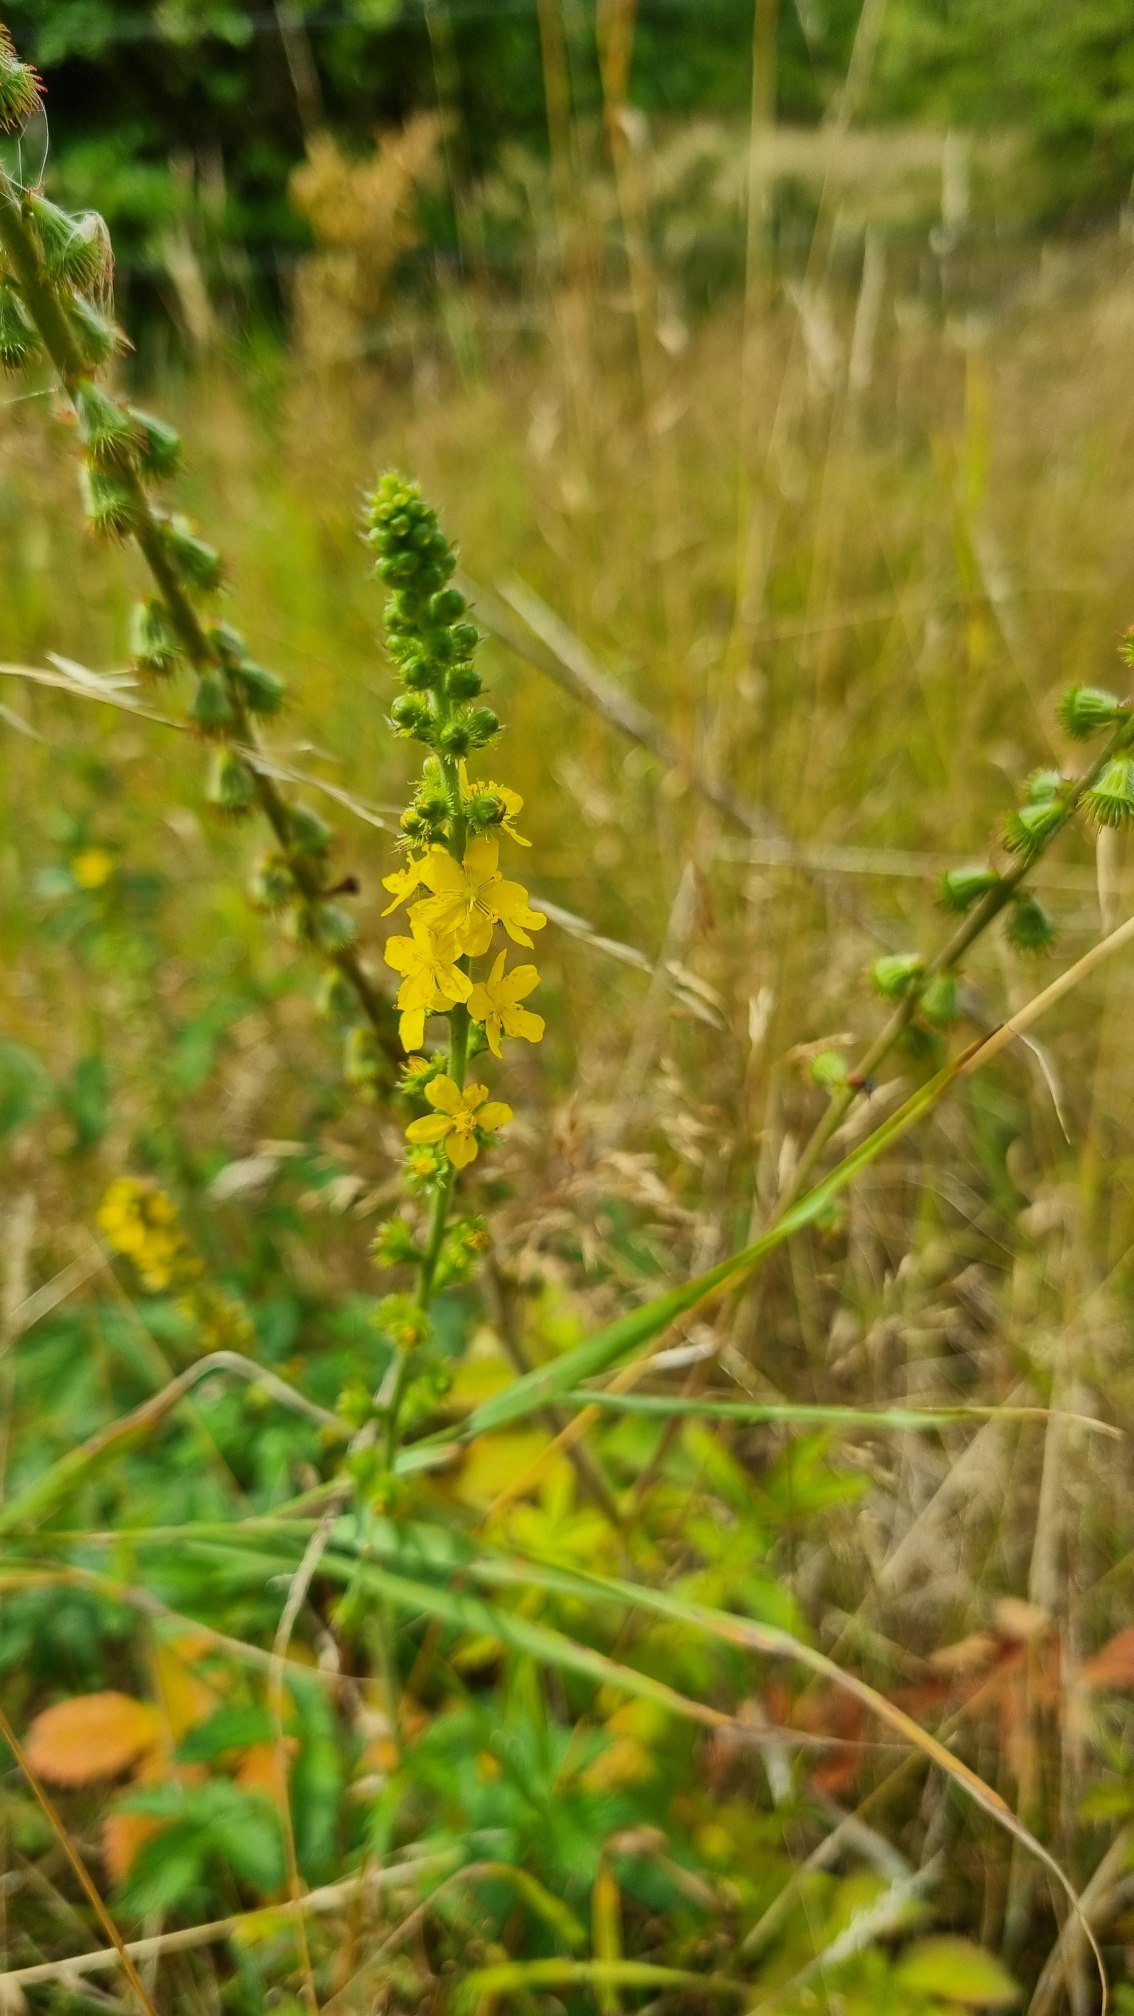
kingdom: Plantae
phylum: Tracheophyta
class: Magnoliopsida
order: Rosales
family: Rosaceae
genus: Agrimonia
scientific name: Agrimonia eupatoria
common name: Almindelig agermåne
